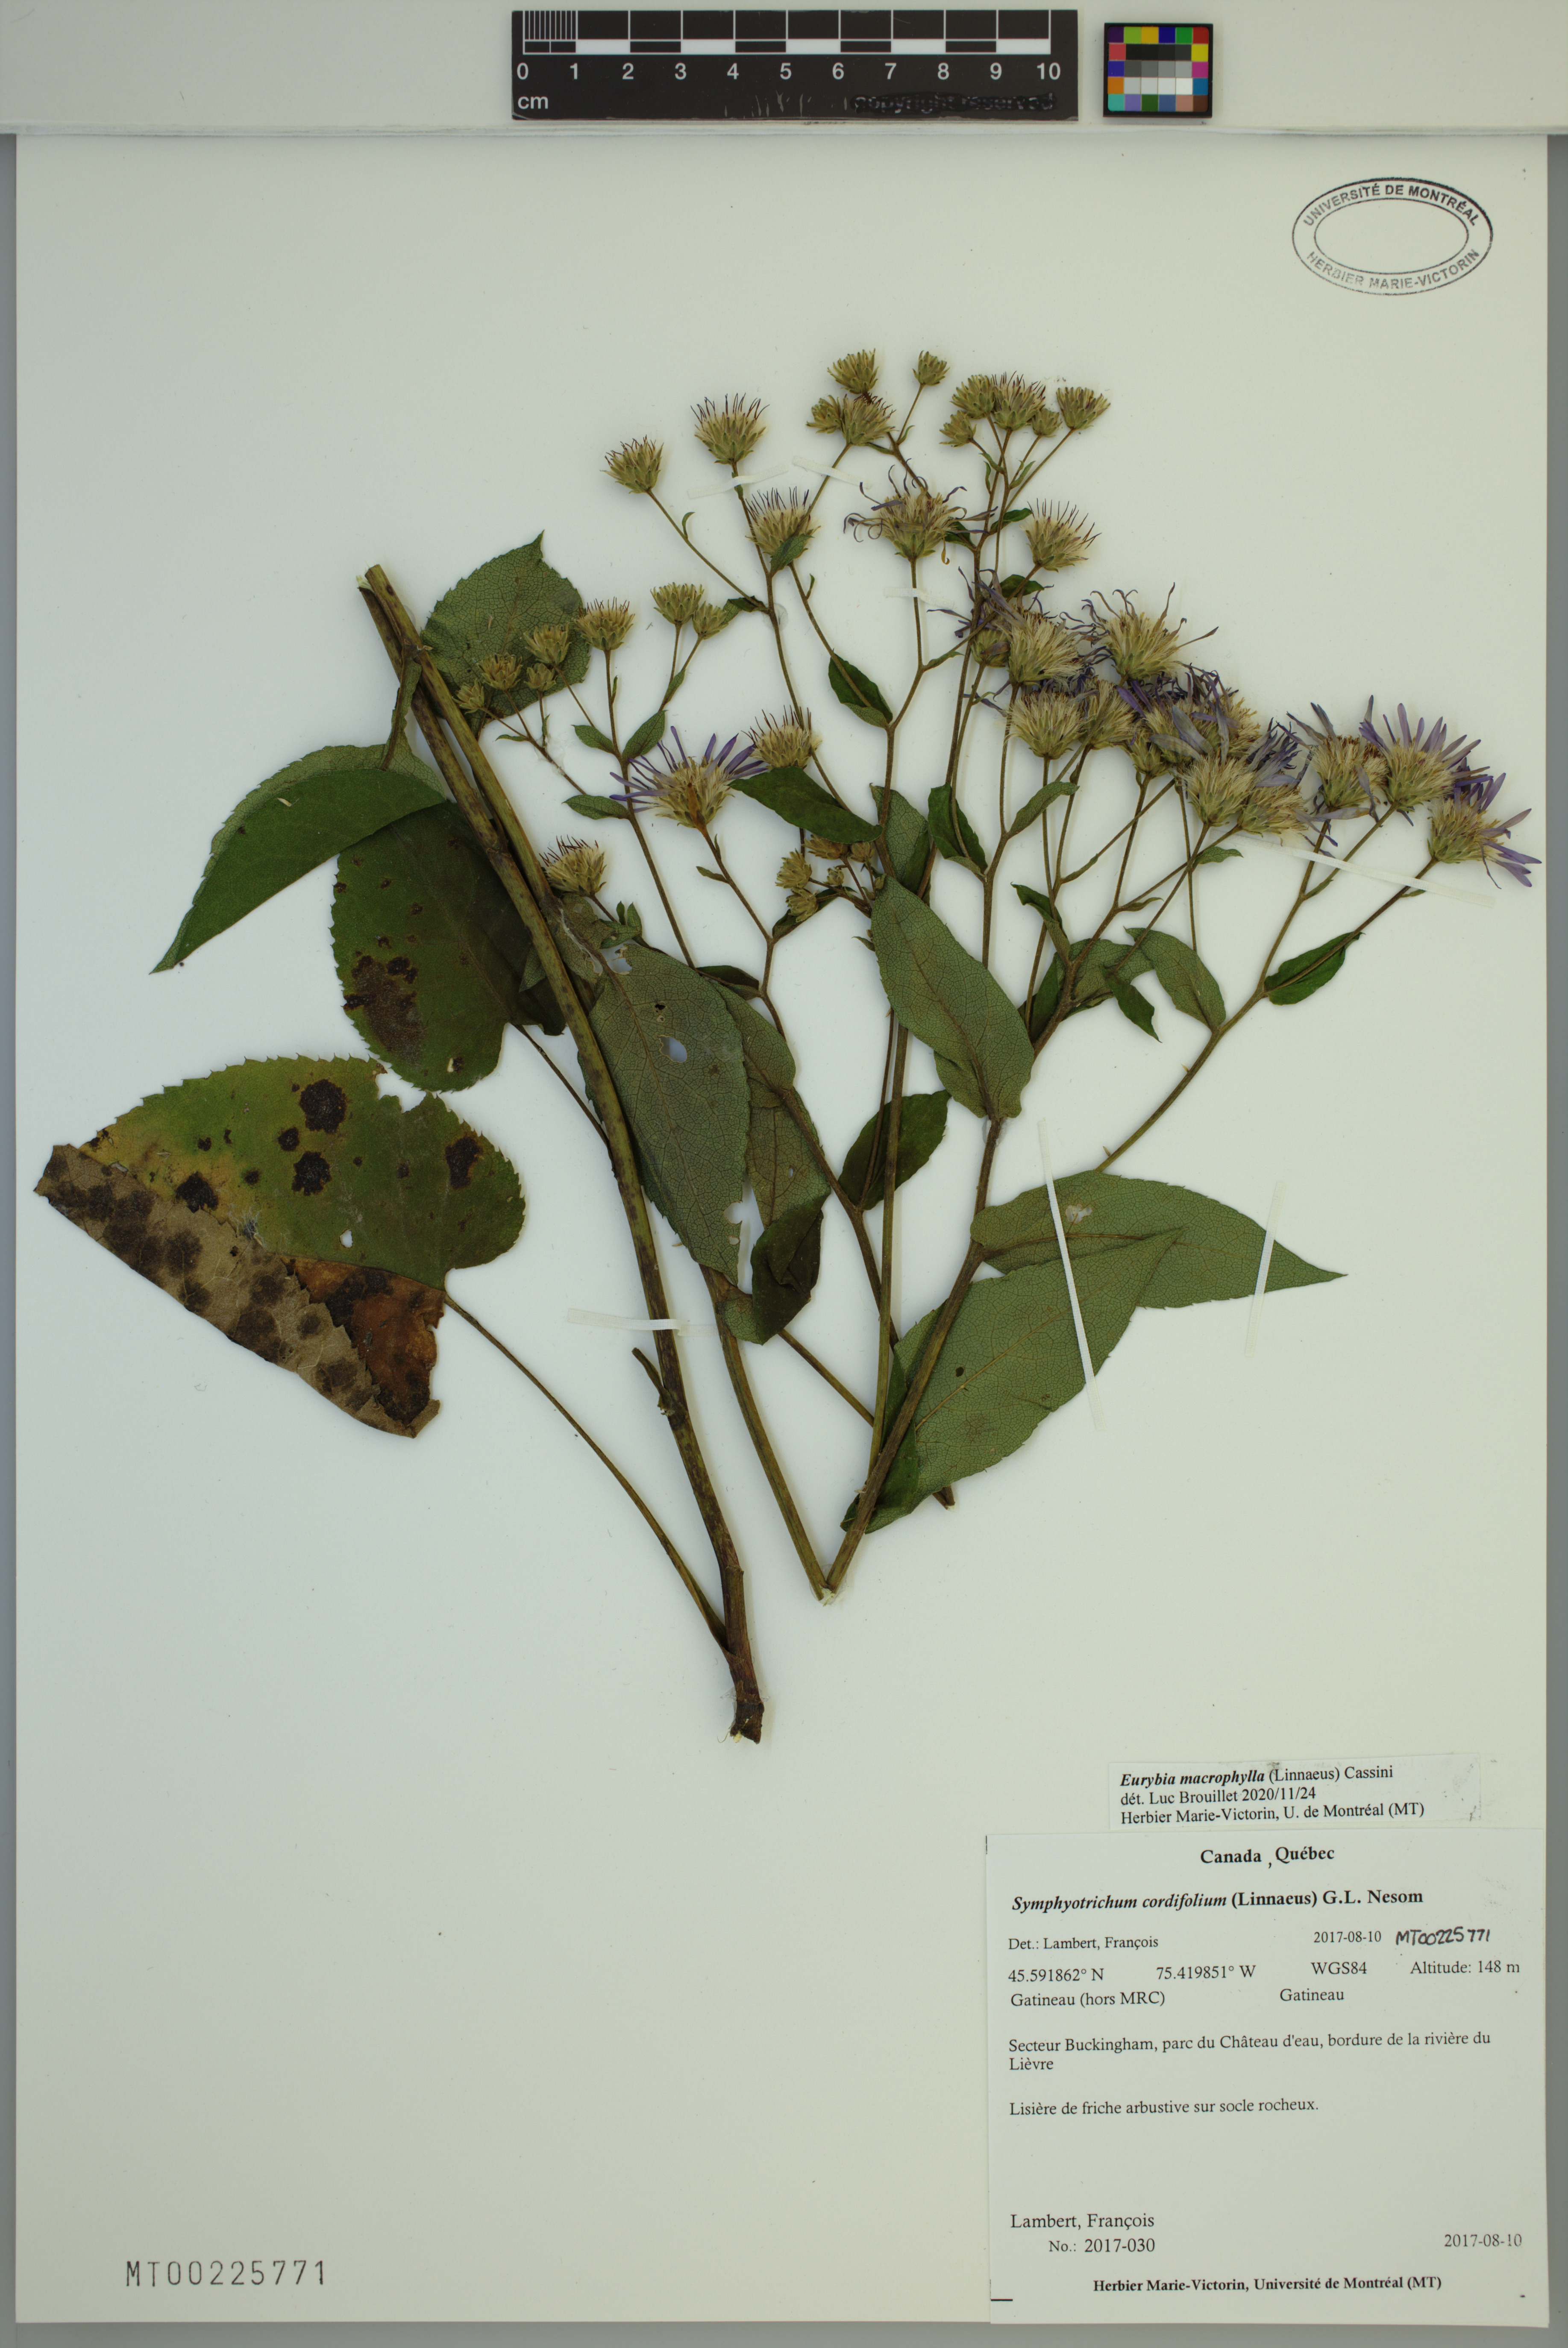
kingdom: Plantae
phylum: Tracheophyta
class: Magnoliopsida
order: Asterales
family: Asteraceae
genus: Eurybia
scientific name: Eurybia macrophylla
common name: Big-leaved aster
